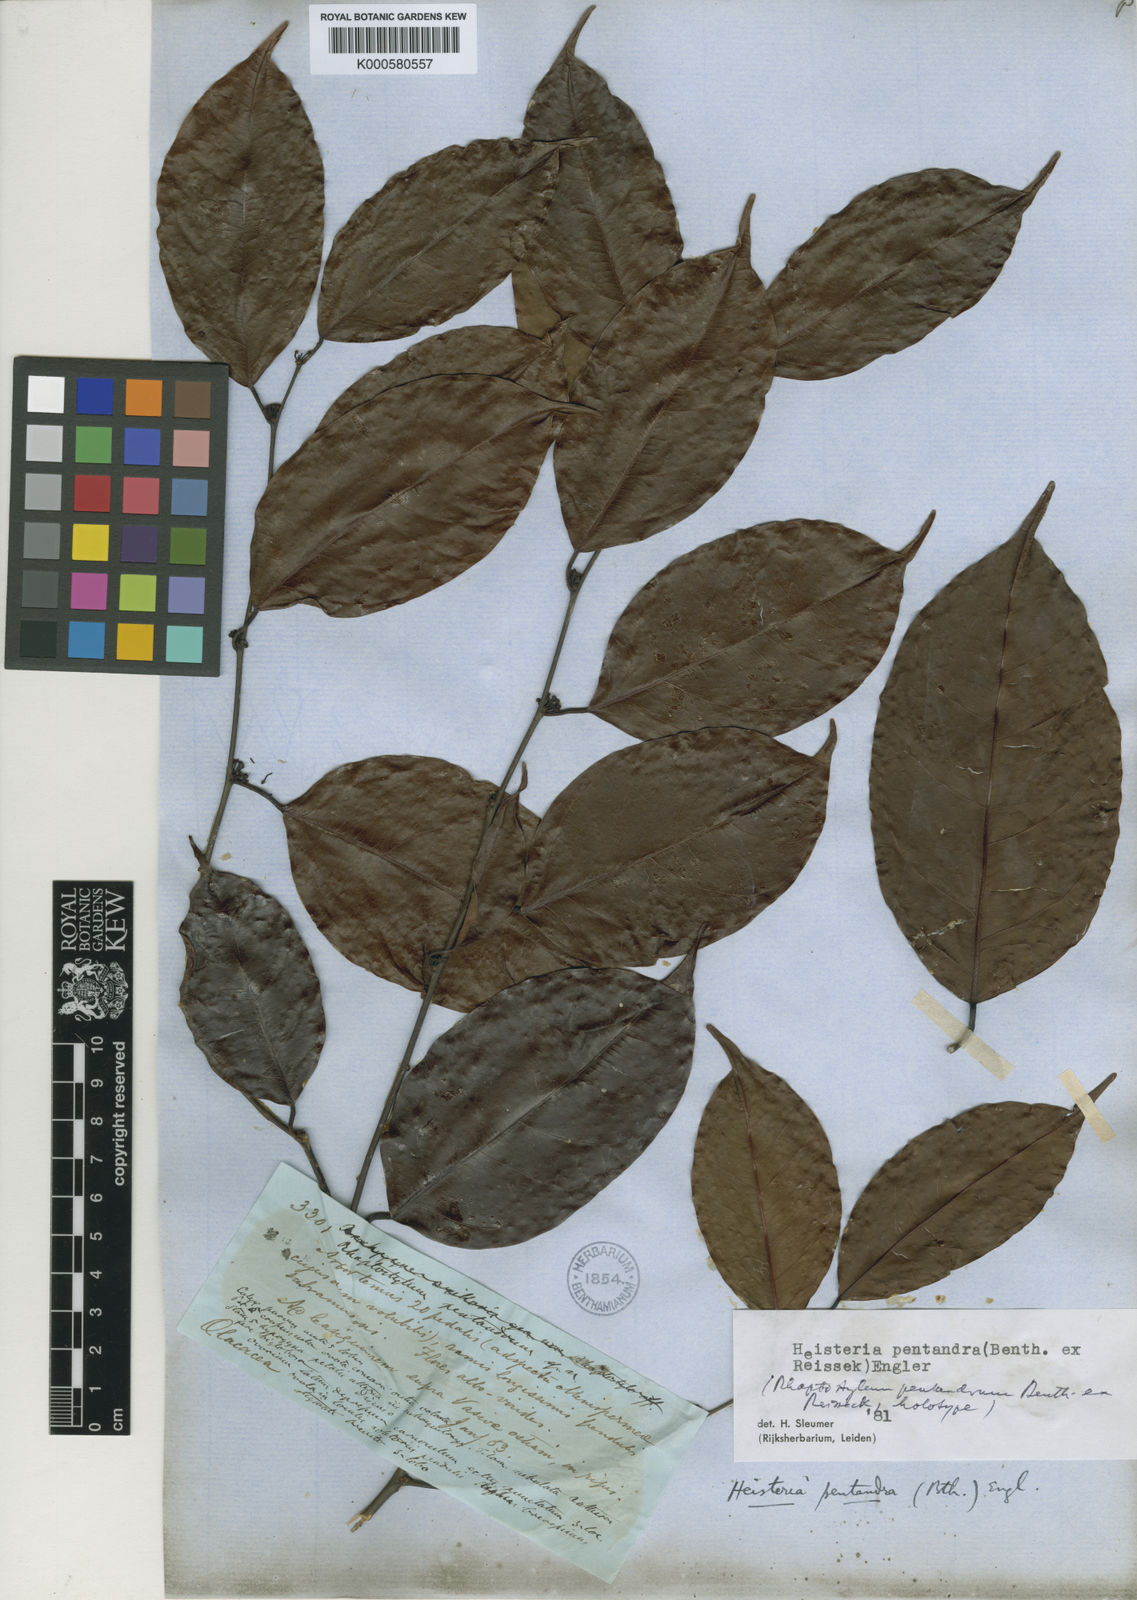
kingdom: Plantae
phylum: Tracheophyta
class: Magnoliopsida
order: Santalales
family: Erythropalaceae
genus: Heisteria
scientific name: Heisteria pentandra
